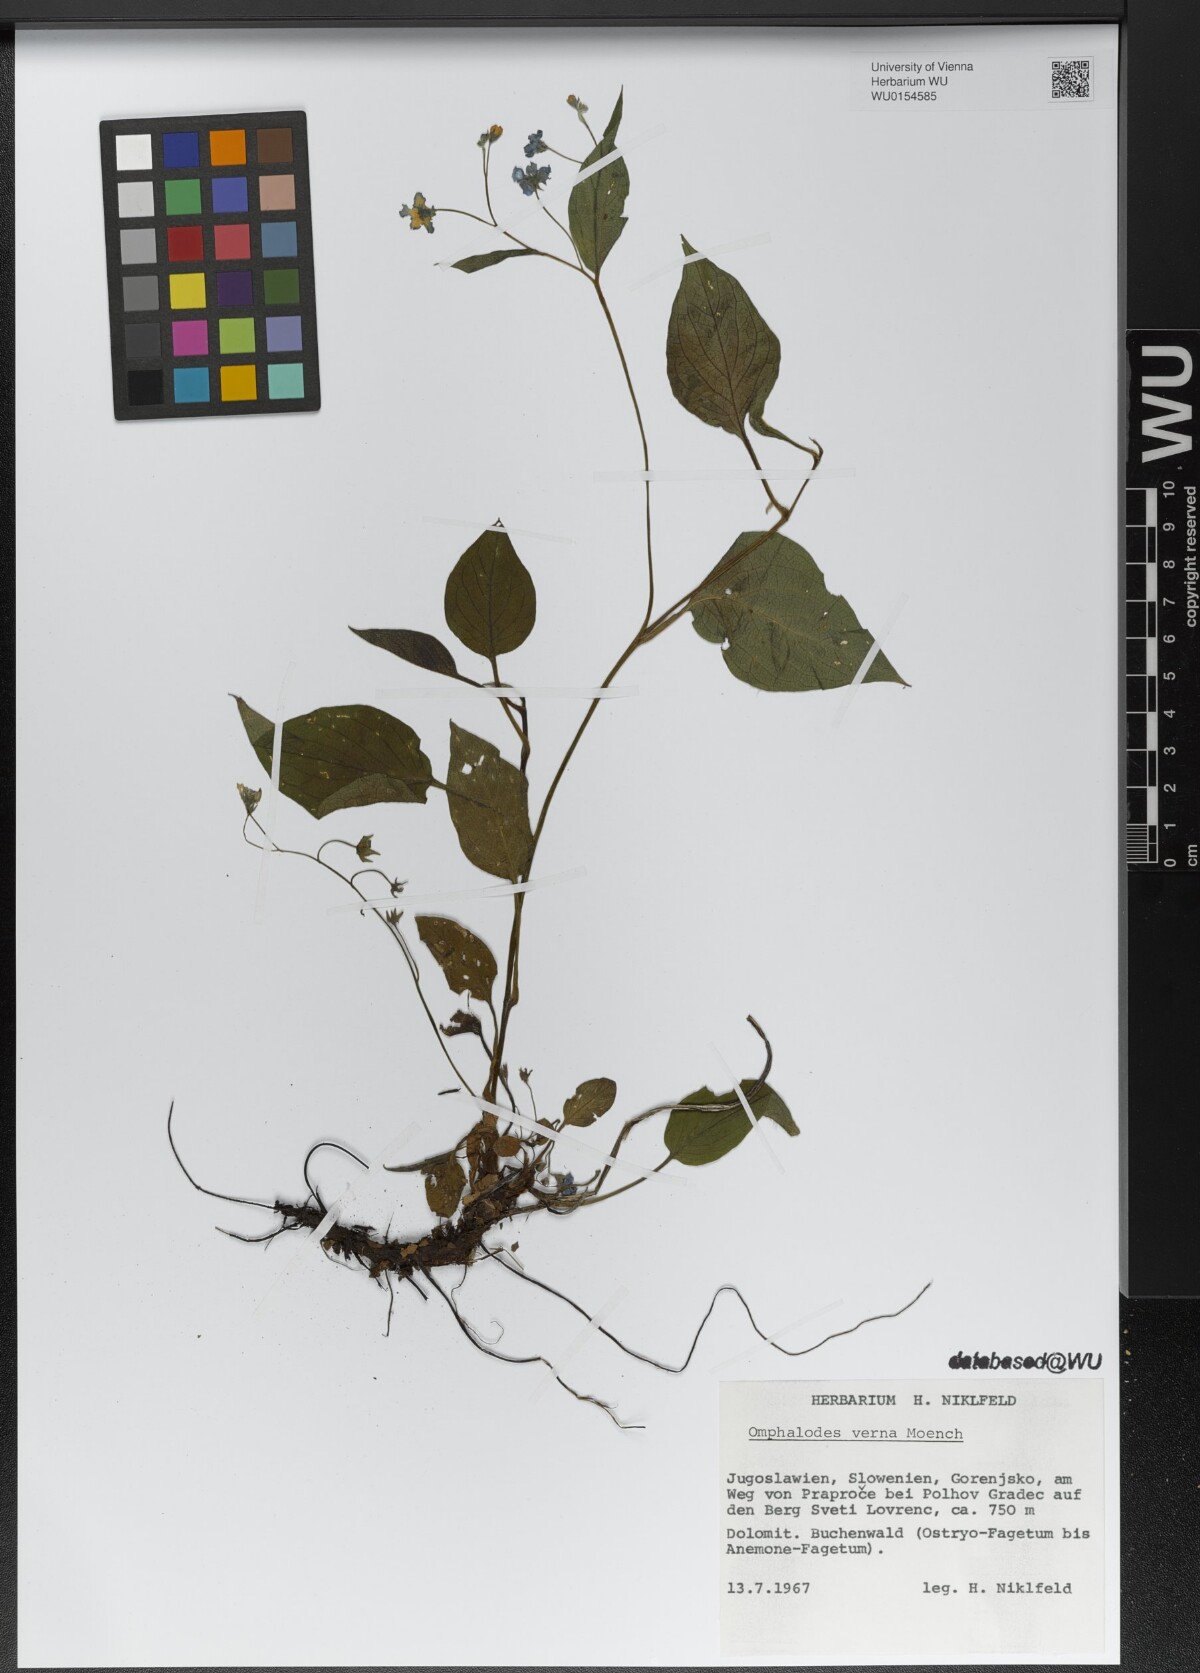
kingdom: Plantae
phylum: Tracheophyta
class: Magnoliopsida
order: Boraginales
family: Boraginaceae
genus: Omphalodes
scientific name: Omphalodes verna
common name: Blue-eyed-mary
